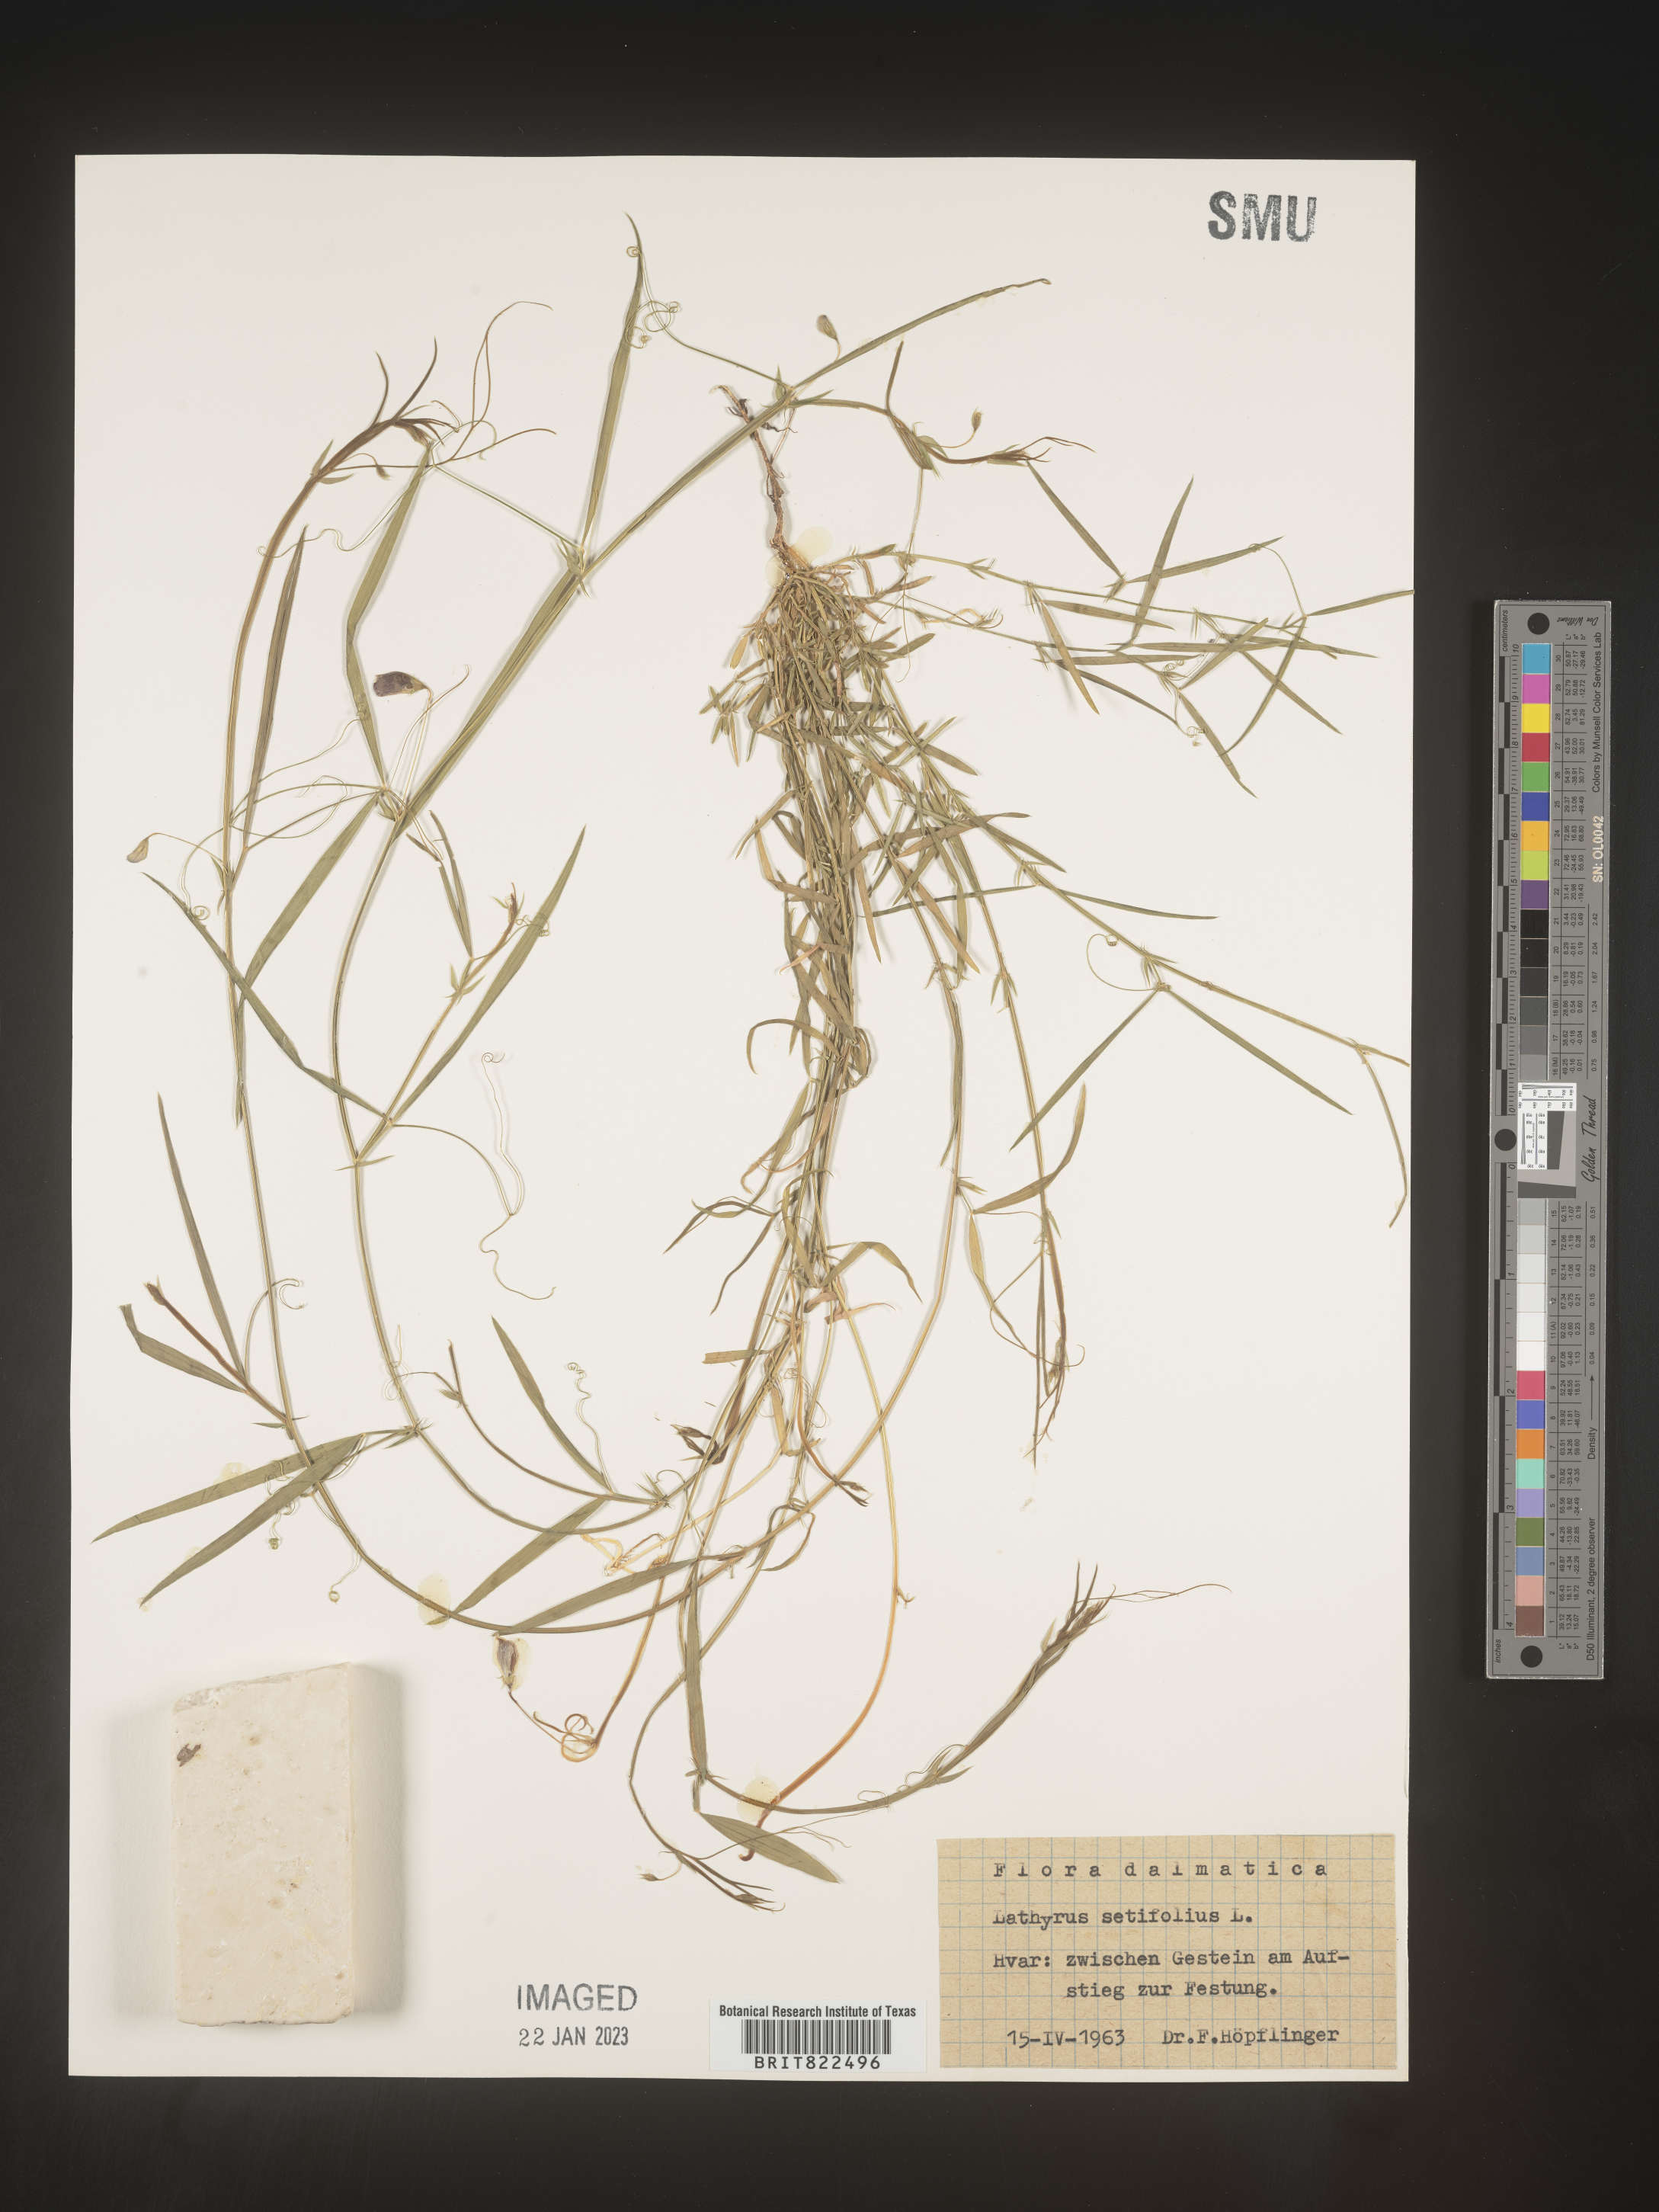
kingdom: Plantae
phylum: Tracheophyta
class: Magnoliopsida
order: Fabales
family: Fabaceae
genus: Lathyrus
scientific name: Lathyrus
